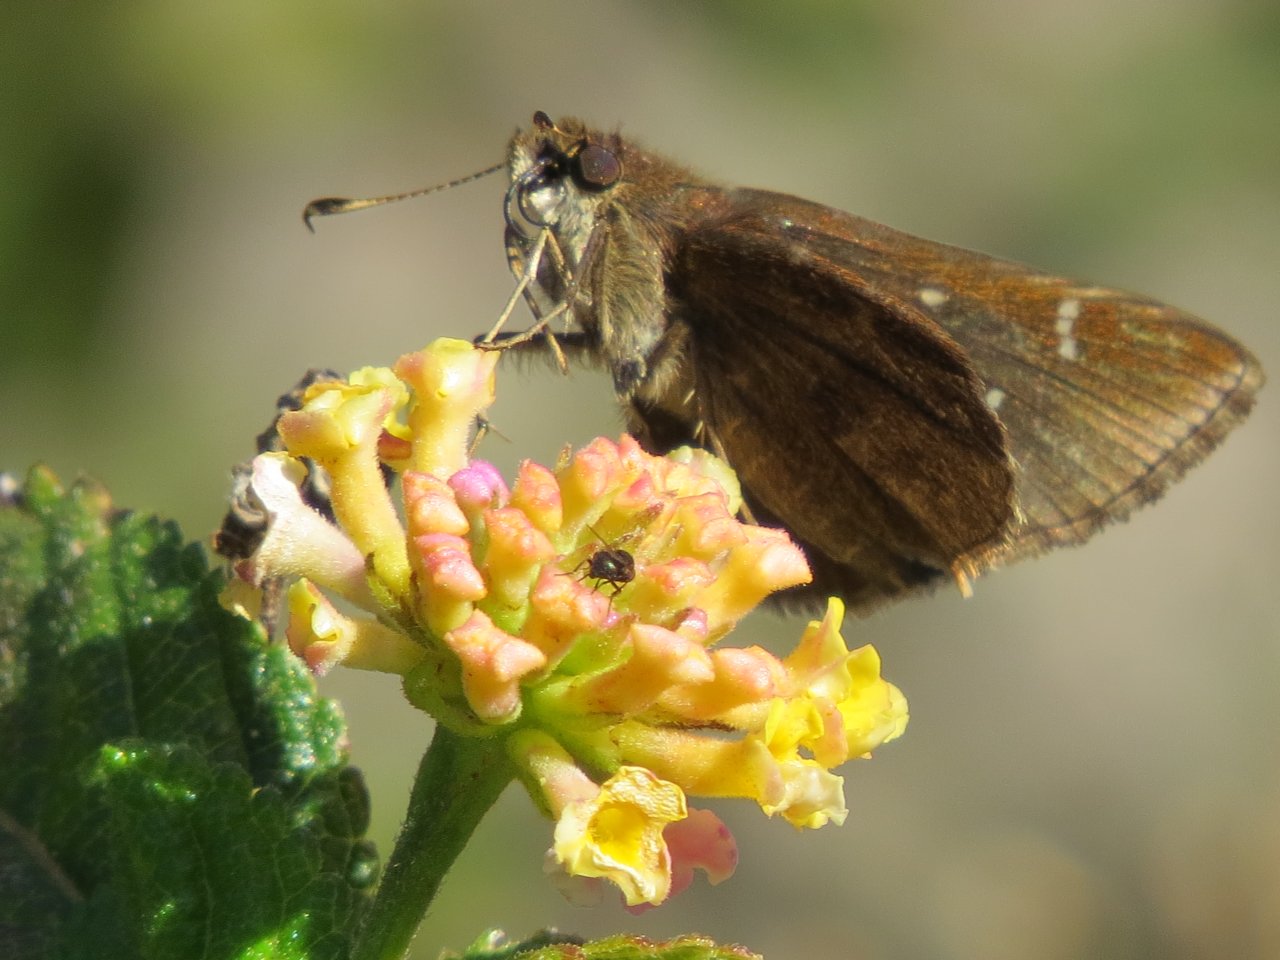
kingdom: Animalia
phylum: Arthropoda
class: Insecta
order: Lepidoptera
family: Hesperiidae
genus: Lerema
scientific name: Lerema accius
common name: Clouded Skipper
